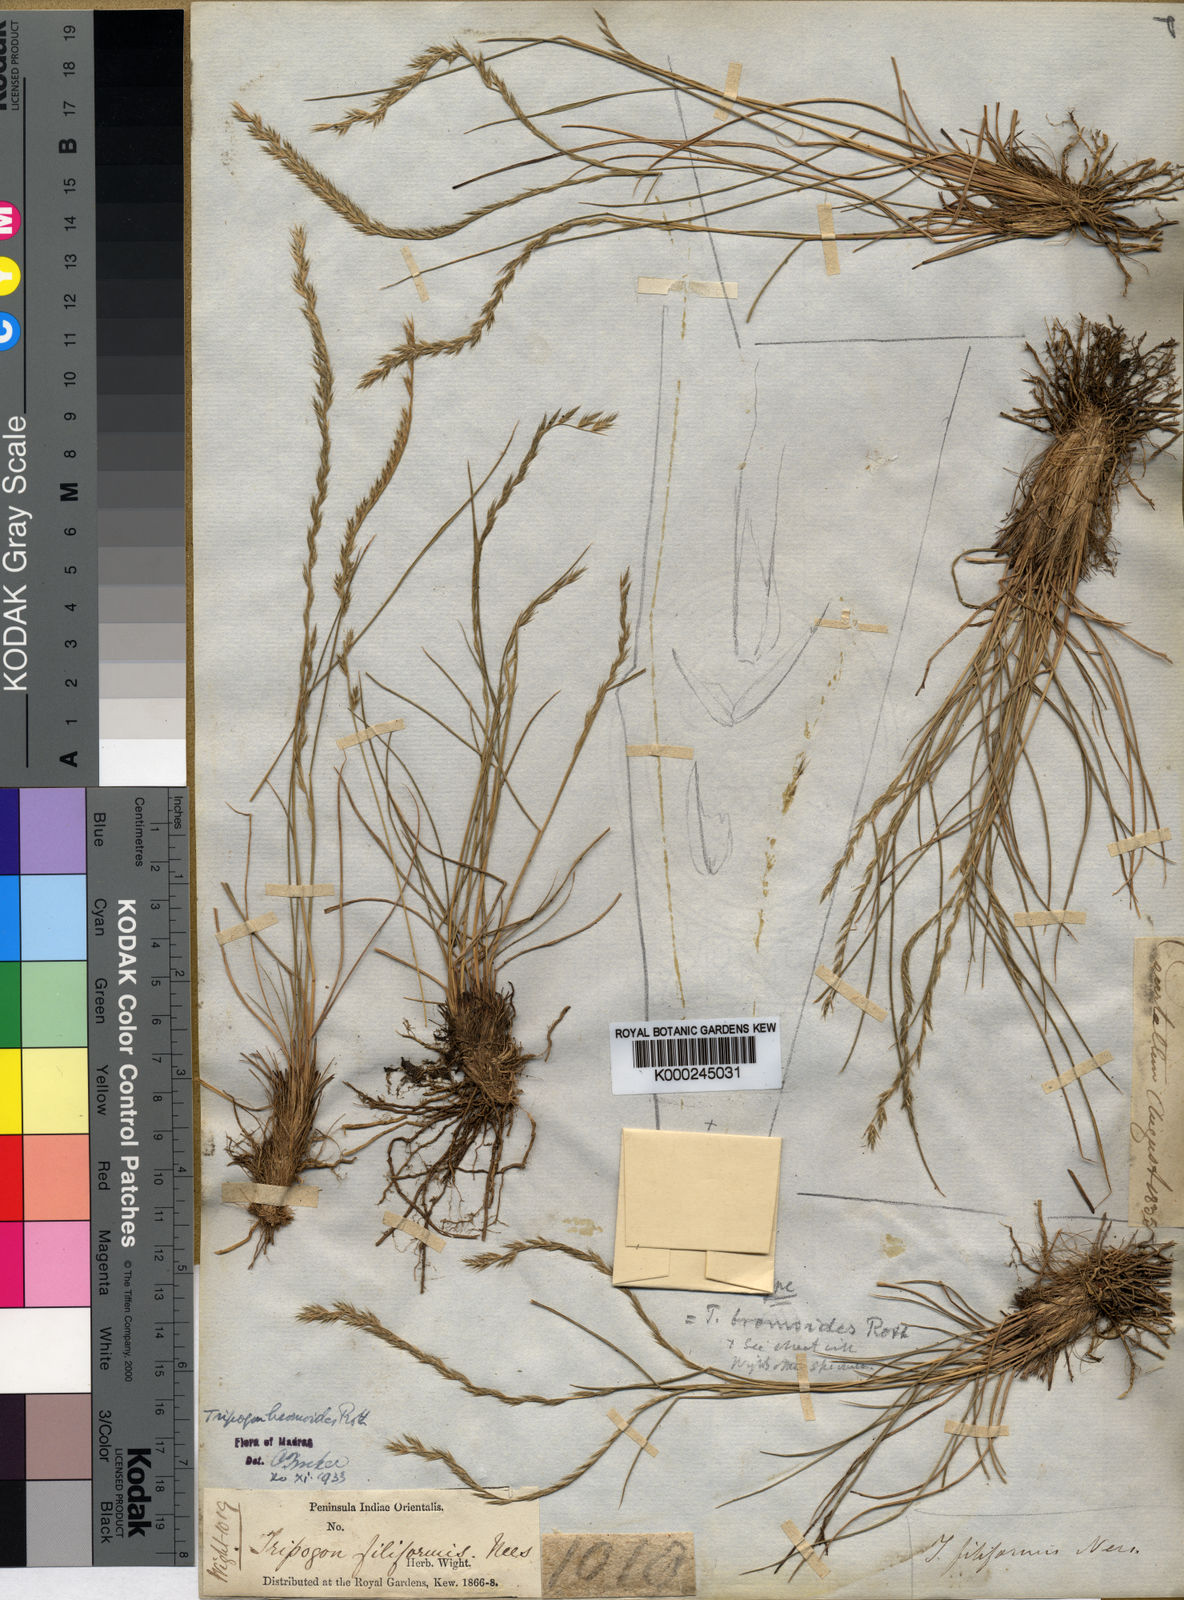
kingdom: Plantae
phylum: Tracheophyta
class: Liliopsida
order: Poales
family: Poaceae
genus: Tripogon
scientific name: Tripogon filiformis
